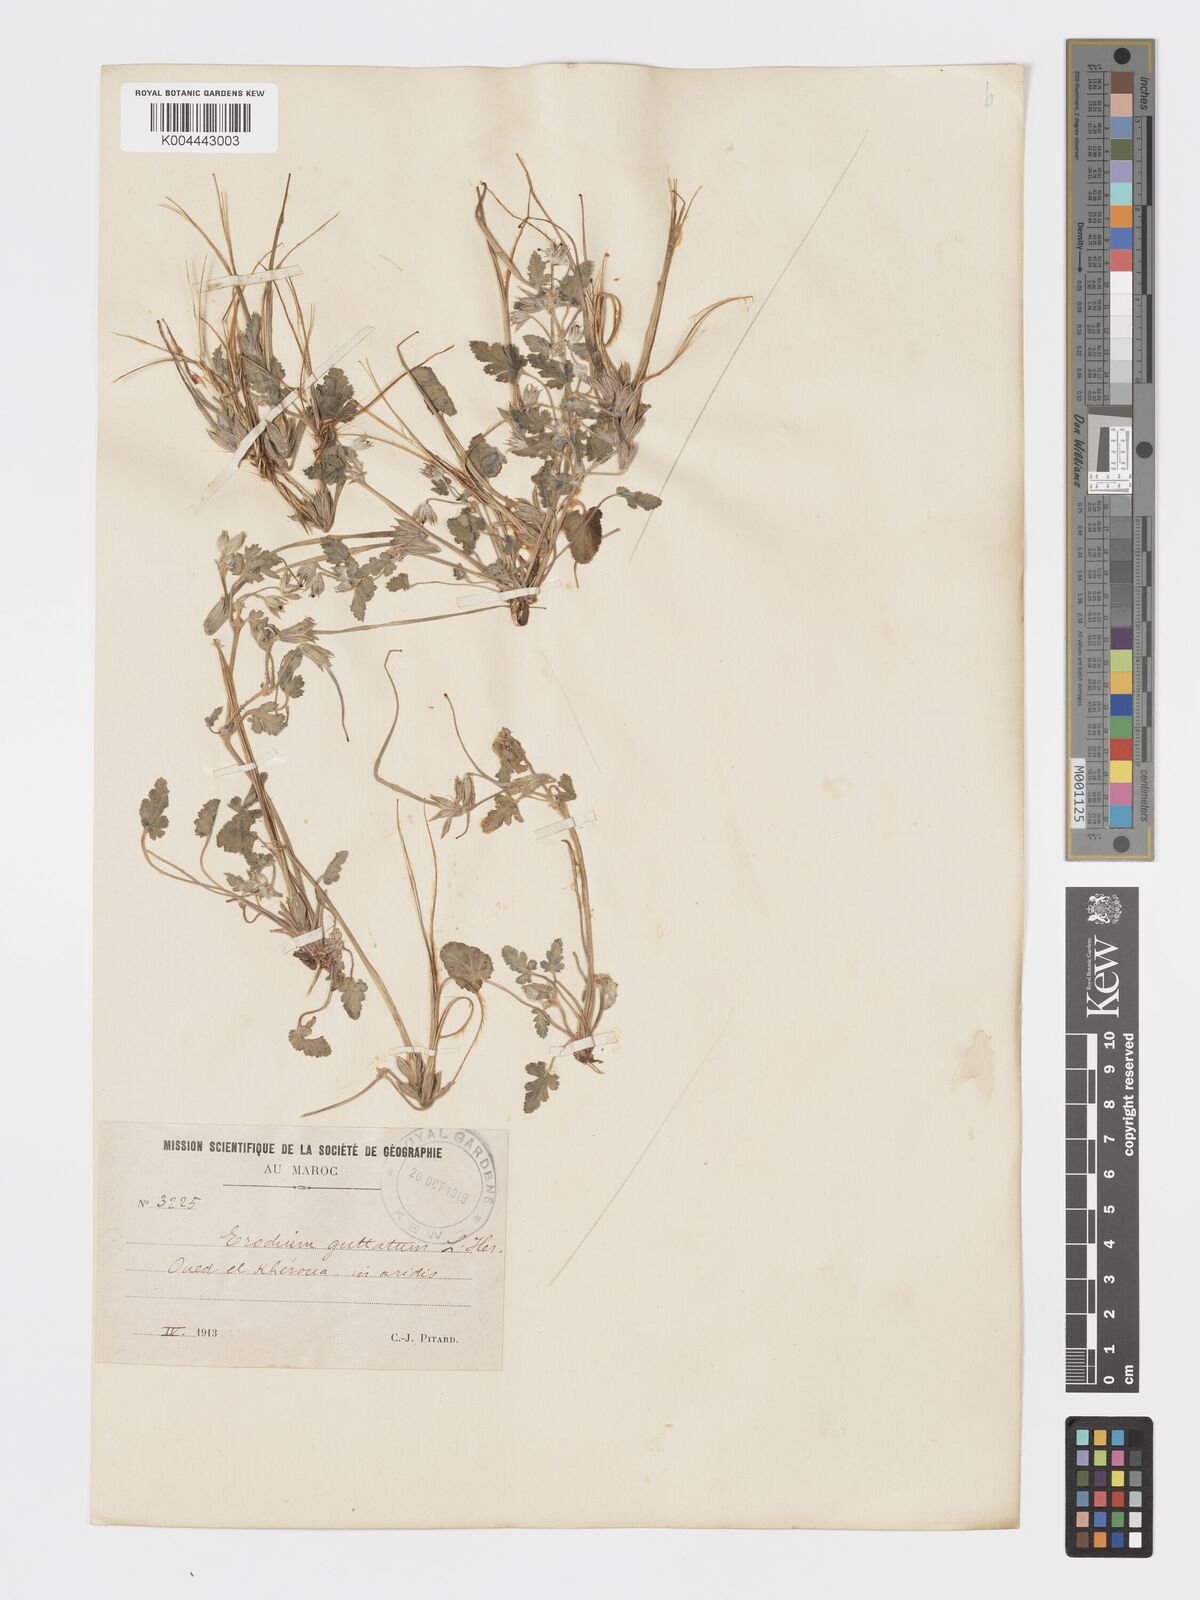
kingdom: Plantae
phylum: Tracheophyta
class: Magnoliopsida
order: Geraniales
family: Geraniaceae
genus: Erodium
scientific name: Erodium guttatum
